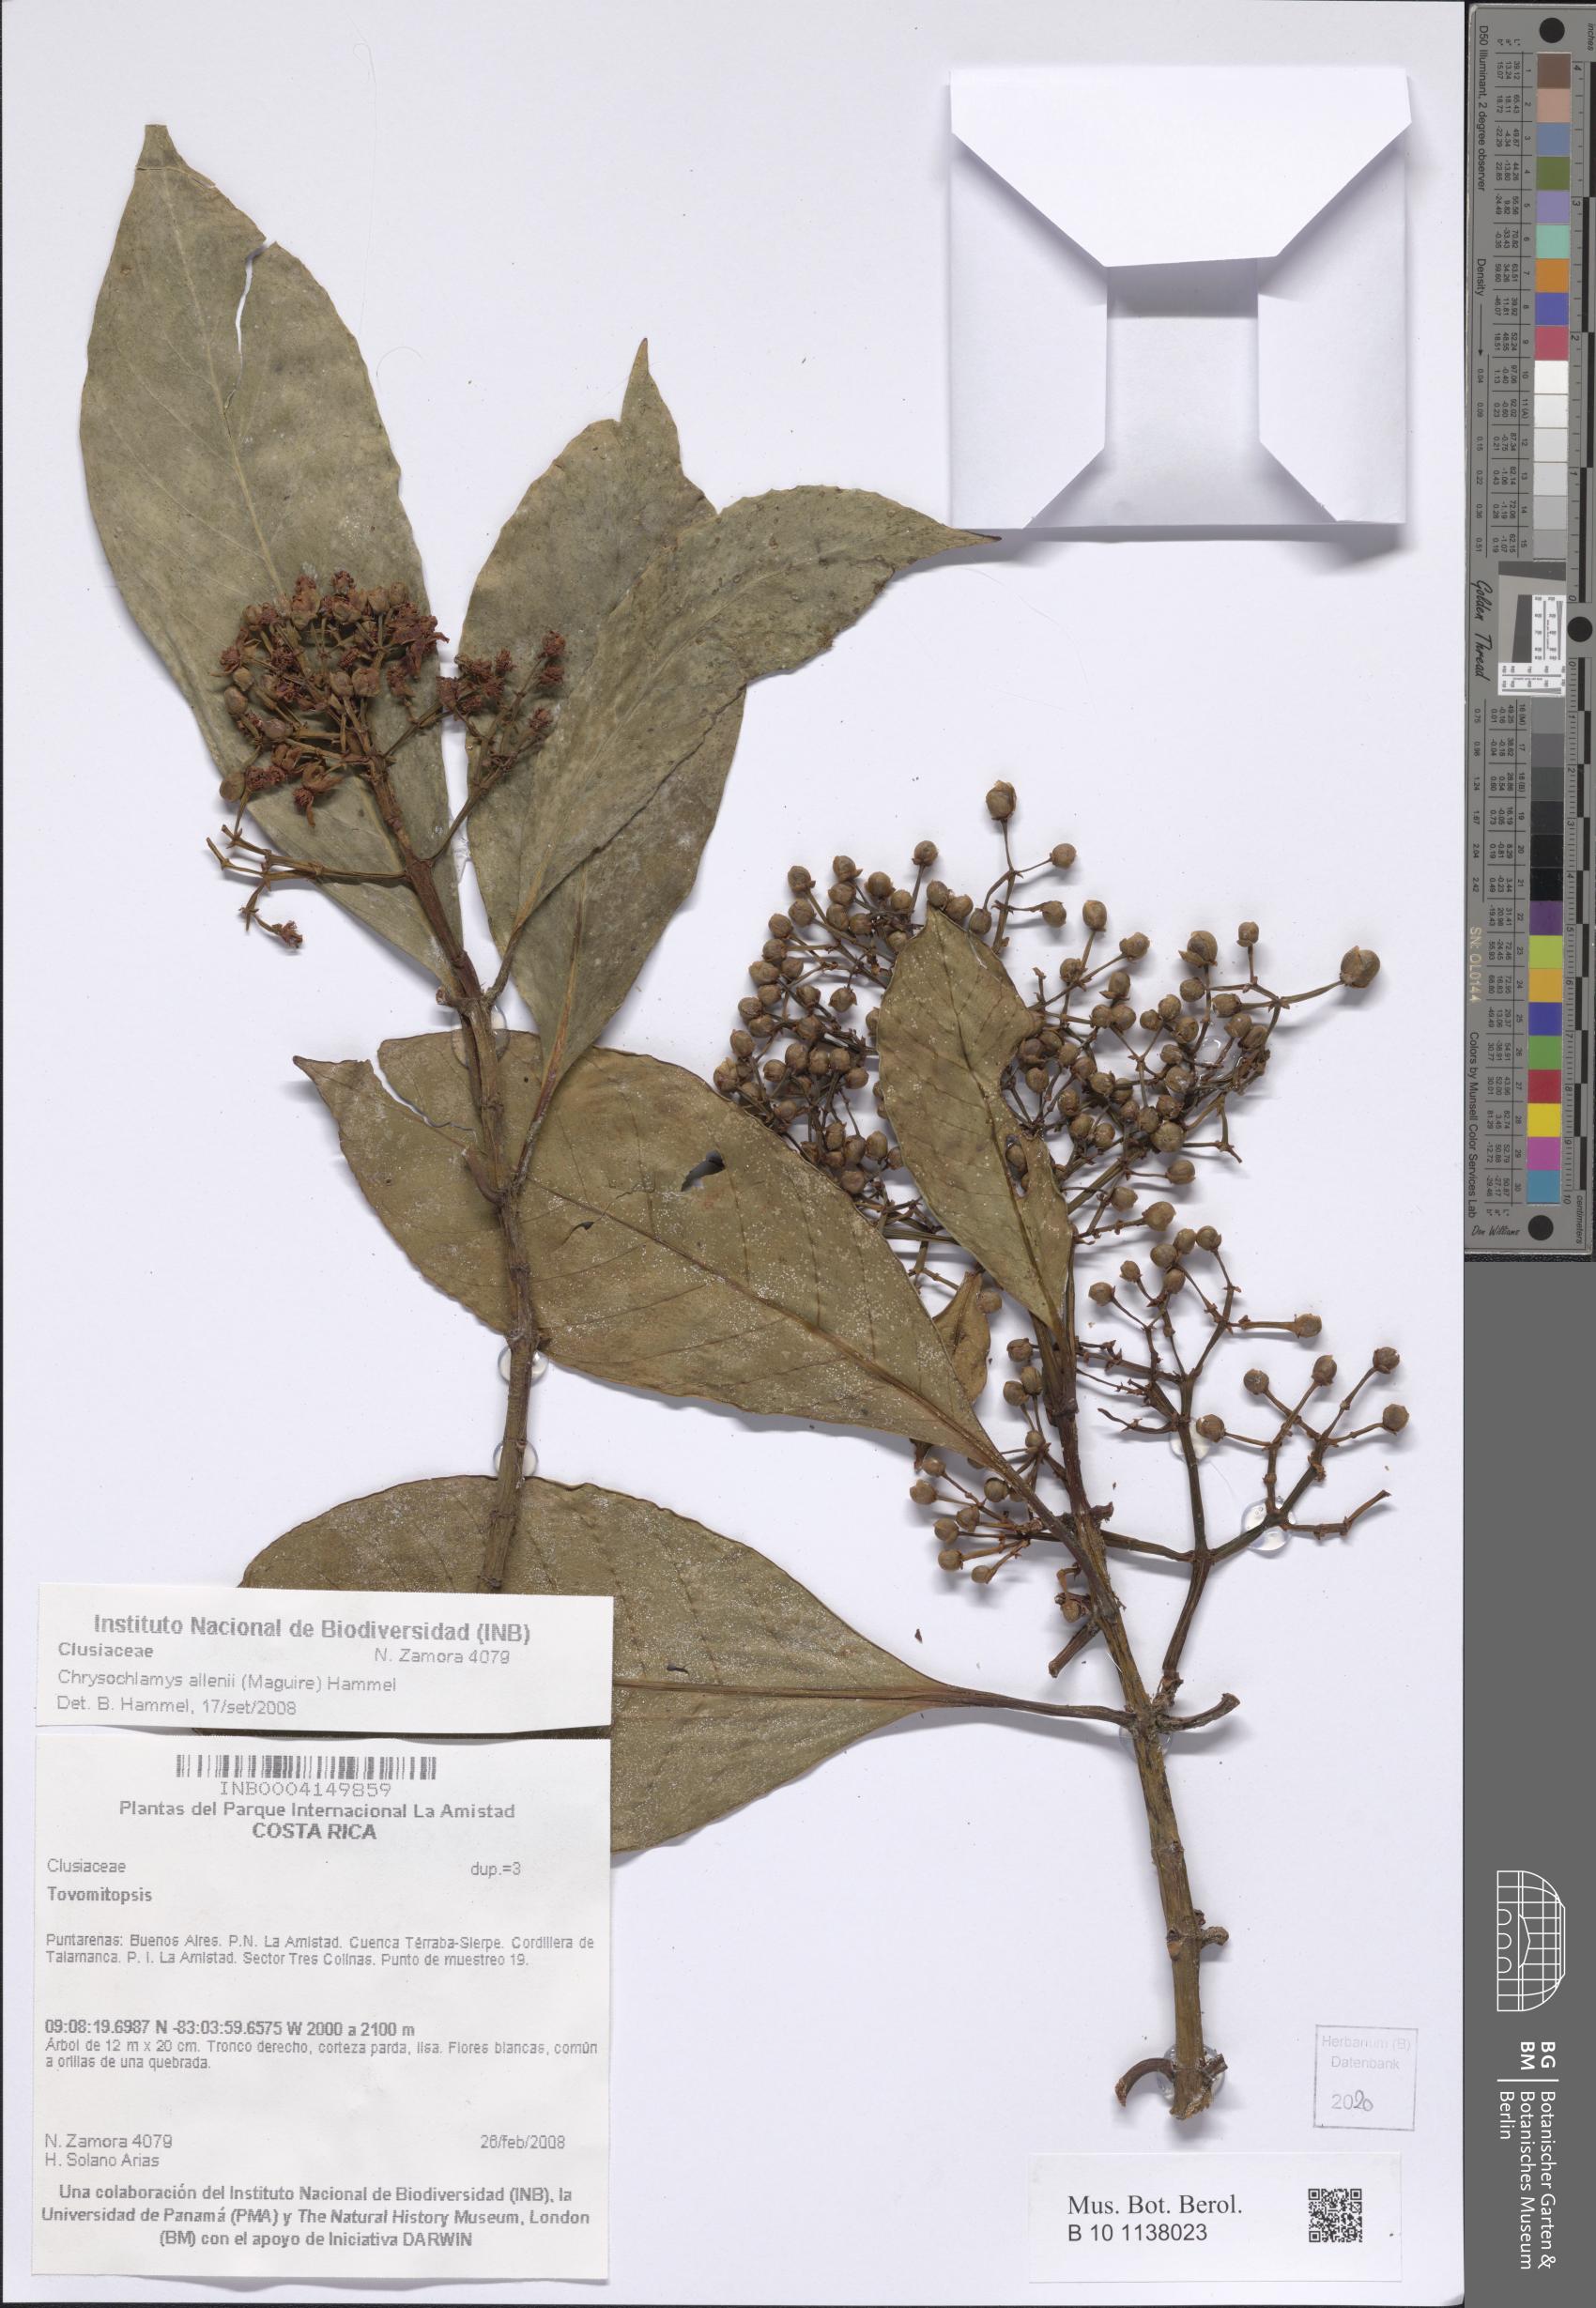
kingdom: Plantae
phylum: Tracheophyta
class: Magnoliopsida
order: Malpighiales
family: Clusiaceae
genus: Chrysochlamys
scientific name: Chrysochlamys allenii
